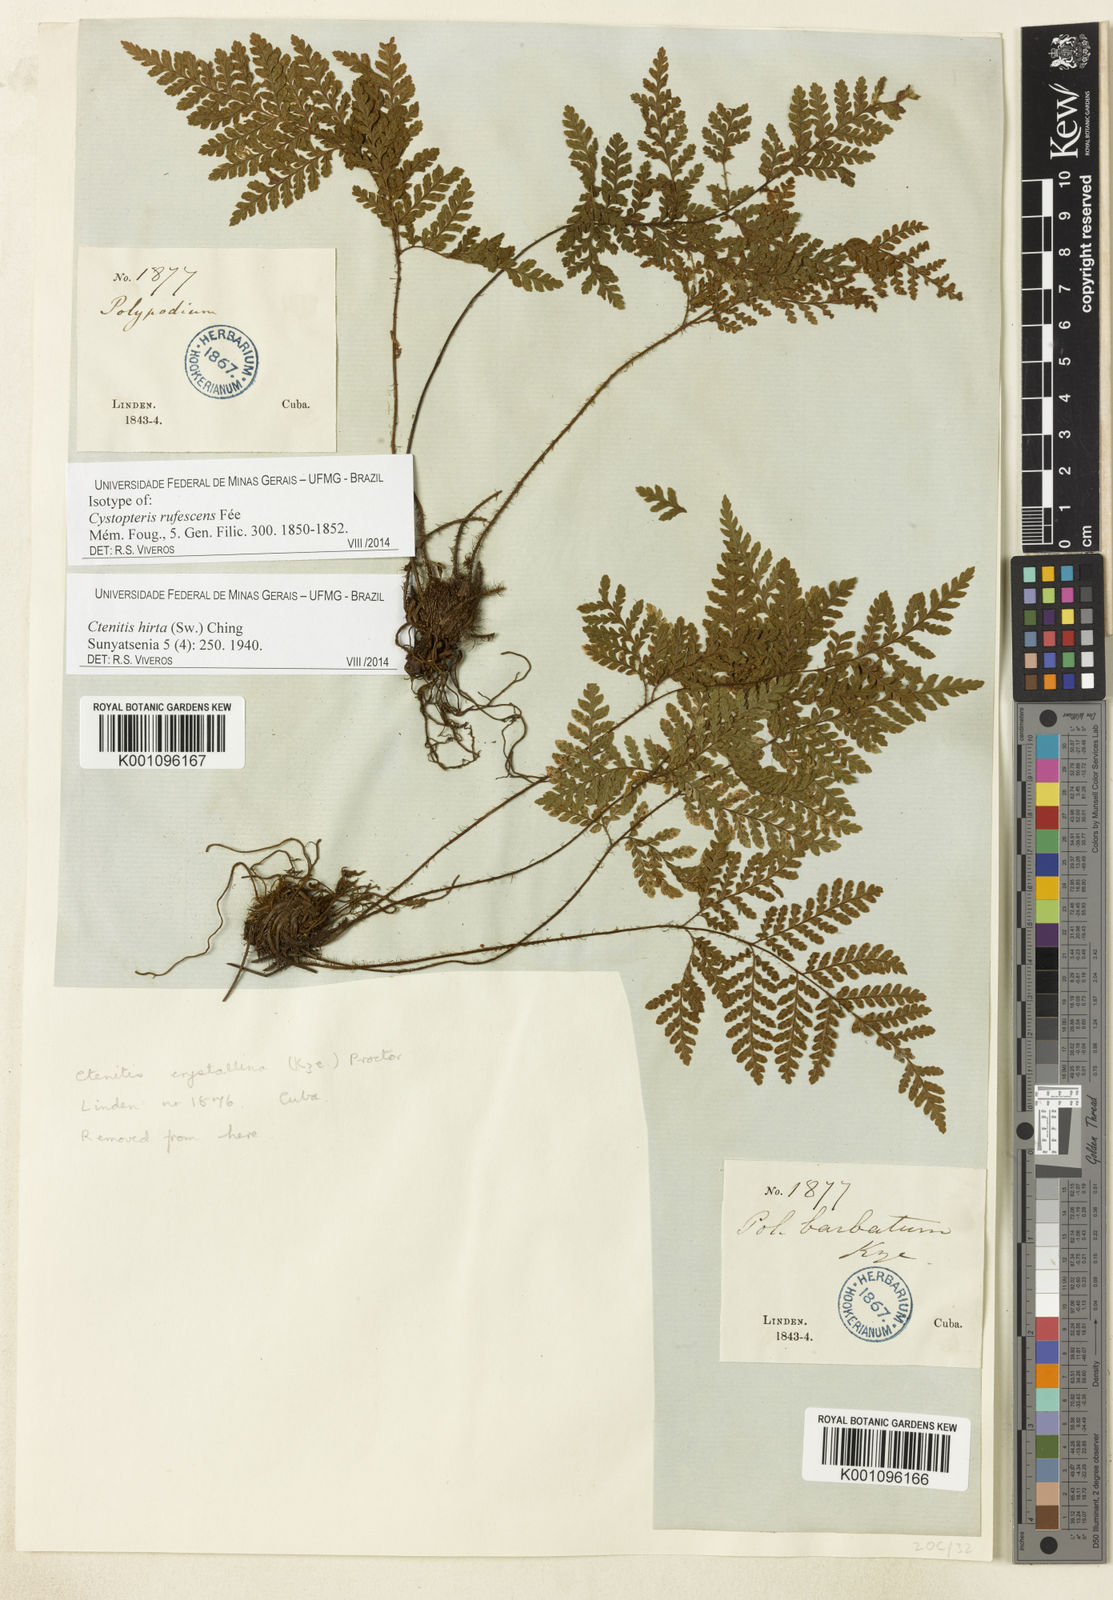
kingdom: Plantae
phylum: Tracheophyta
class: Polypodiopsida
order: Polypodiales
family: Dryopteridaceae
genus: Ctenitis
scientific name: Ctenitis hirta
